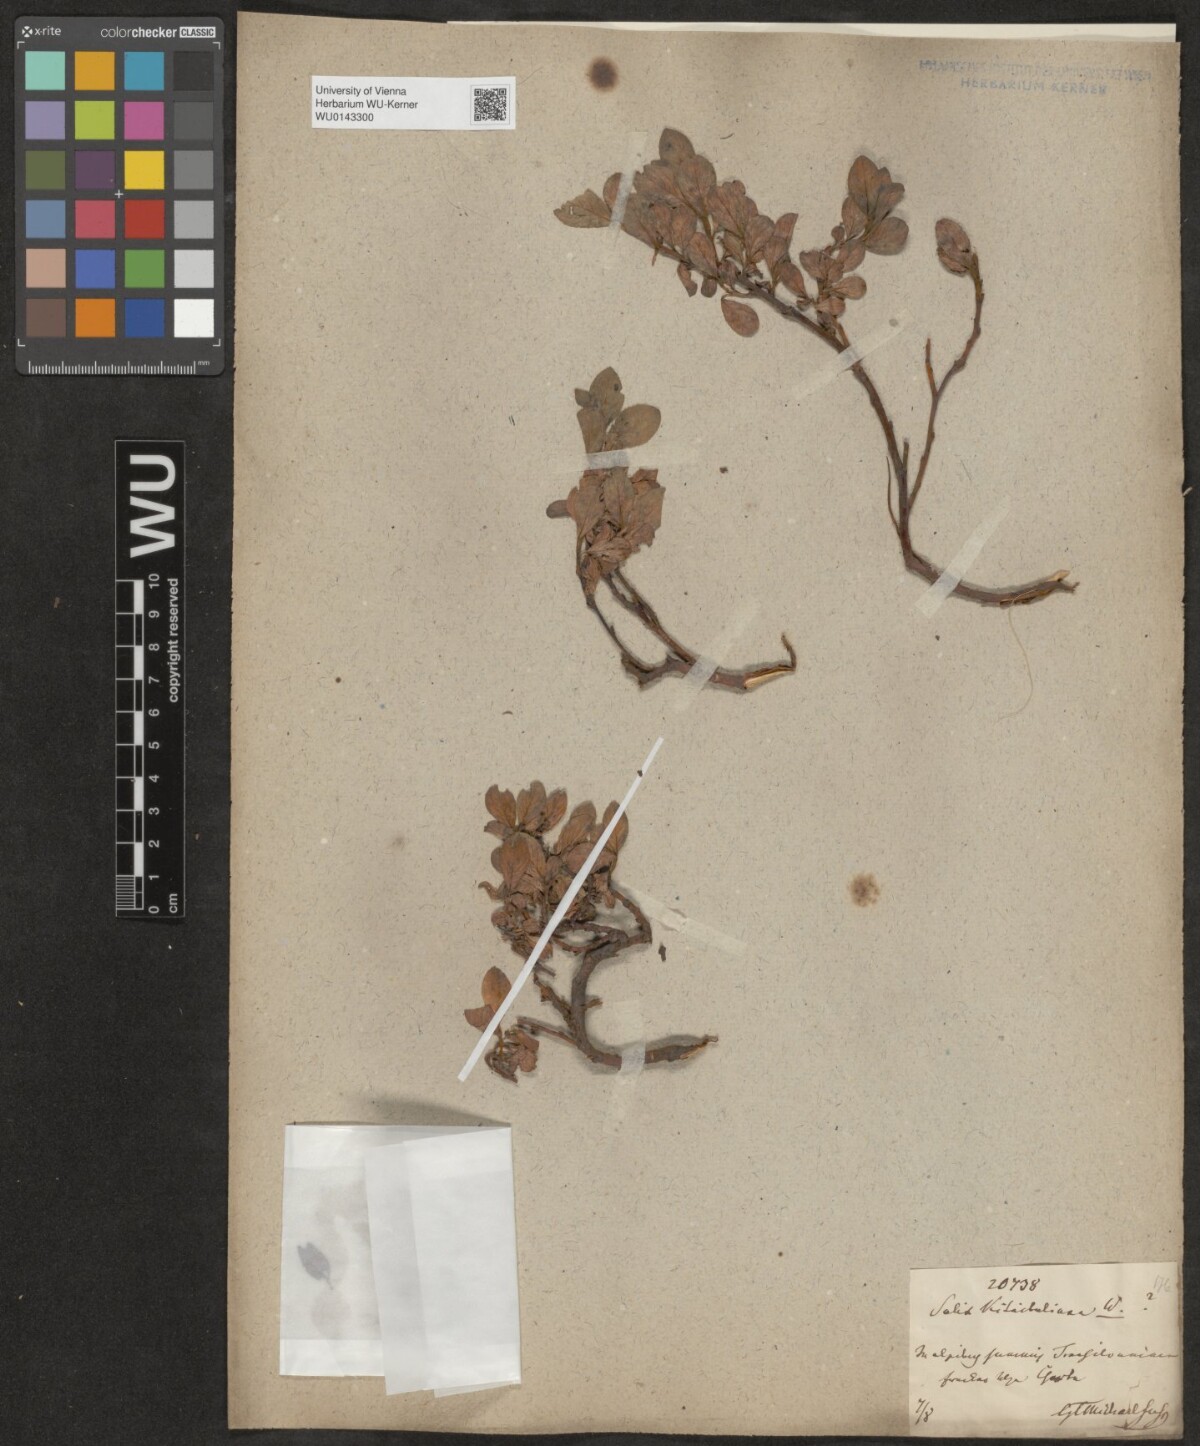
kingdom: Plantae
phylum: Tracheophyta
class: Magnoliopsida
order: Malpighiales
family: Salicaceae
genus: Salix
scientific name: Salix retusa
